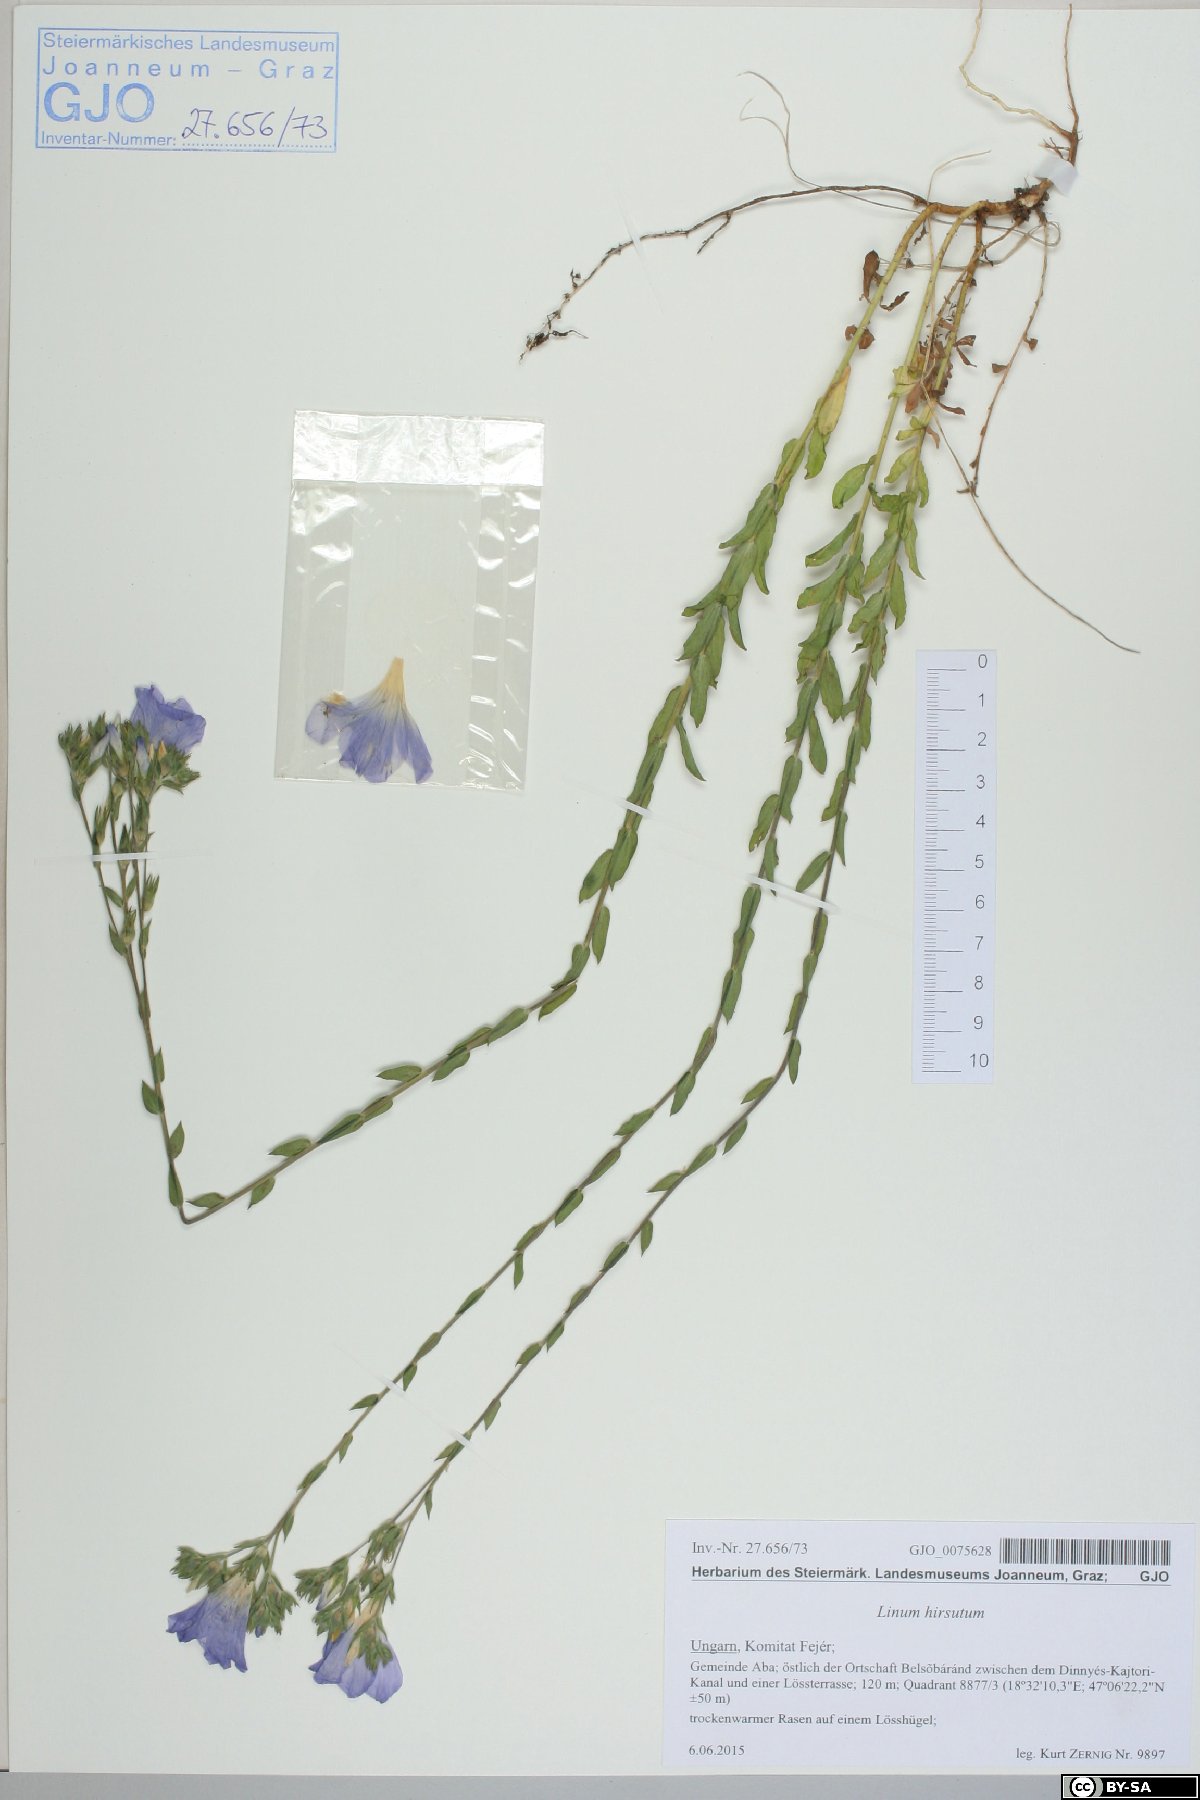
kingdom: Plantae
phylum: Tracheophyta
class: Magnoliopsida
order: Malpighiales
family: Linaceae
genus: Linum
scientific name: Linum hirsutum
